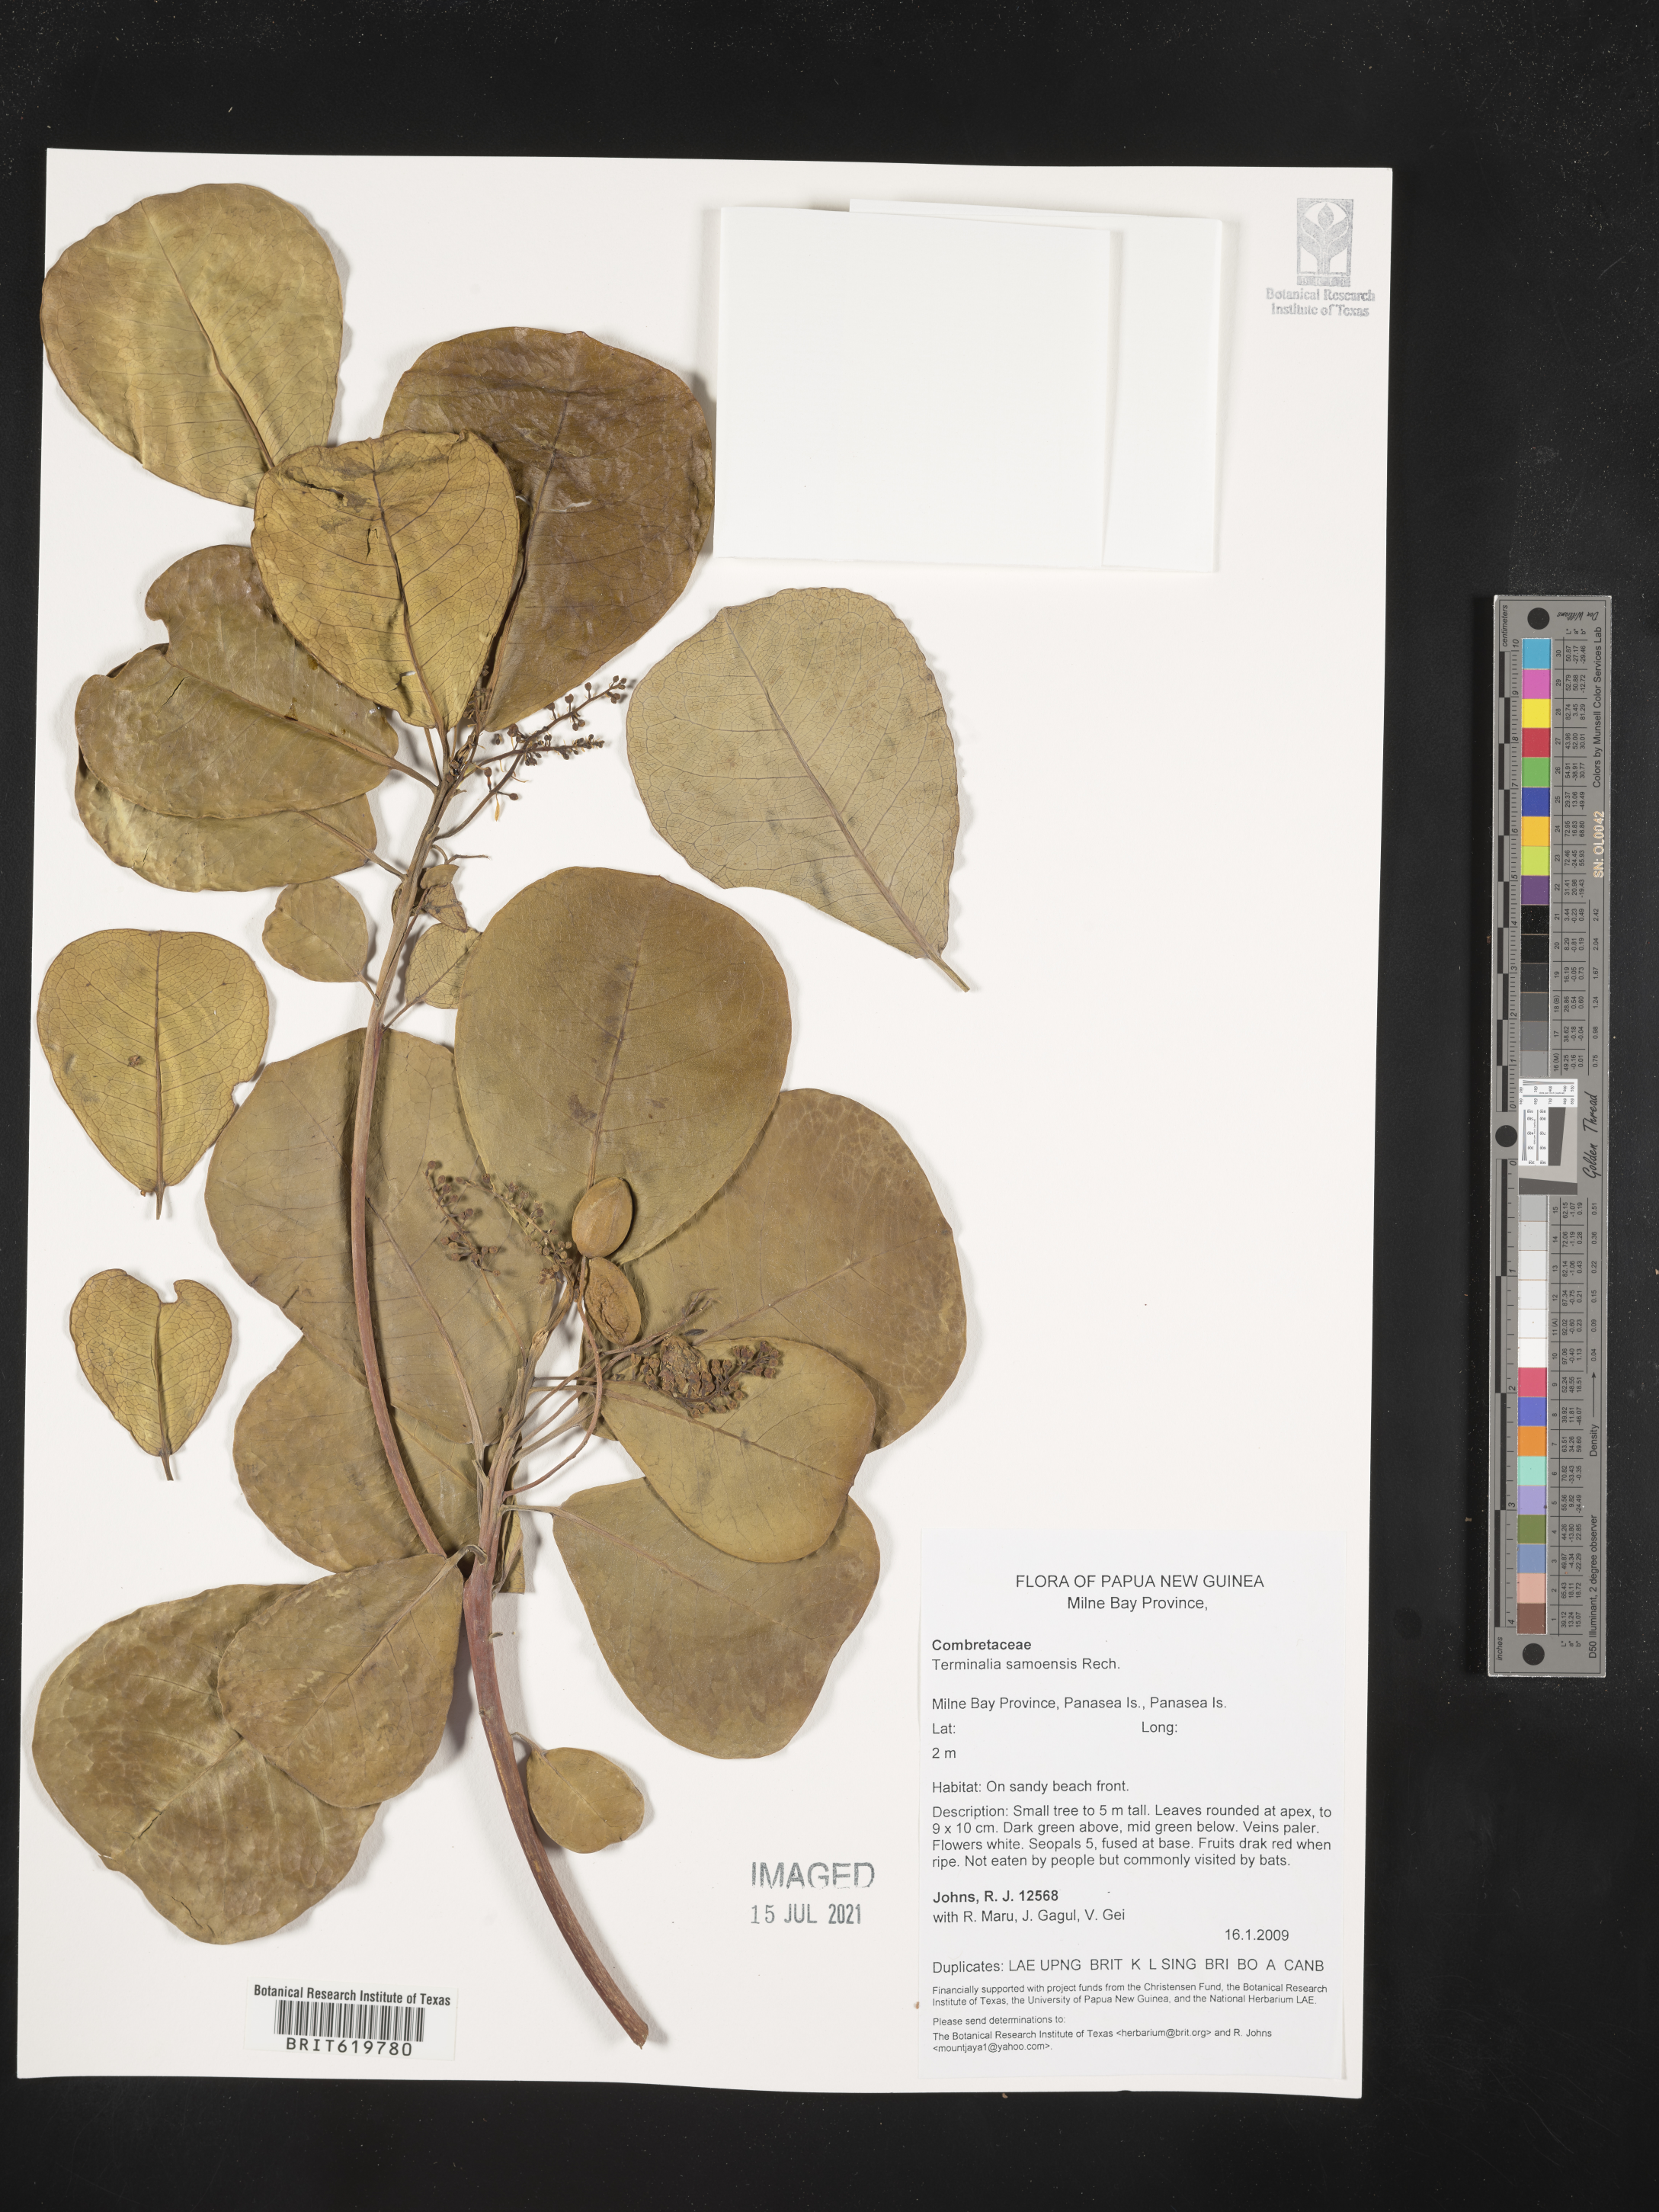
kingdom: Plantae
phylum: Tracheophyta
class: Magnoliopsida
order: Myrtales
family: Combretaceae
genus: Terminalia
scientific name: Terminalia samoensis
